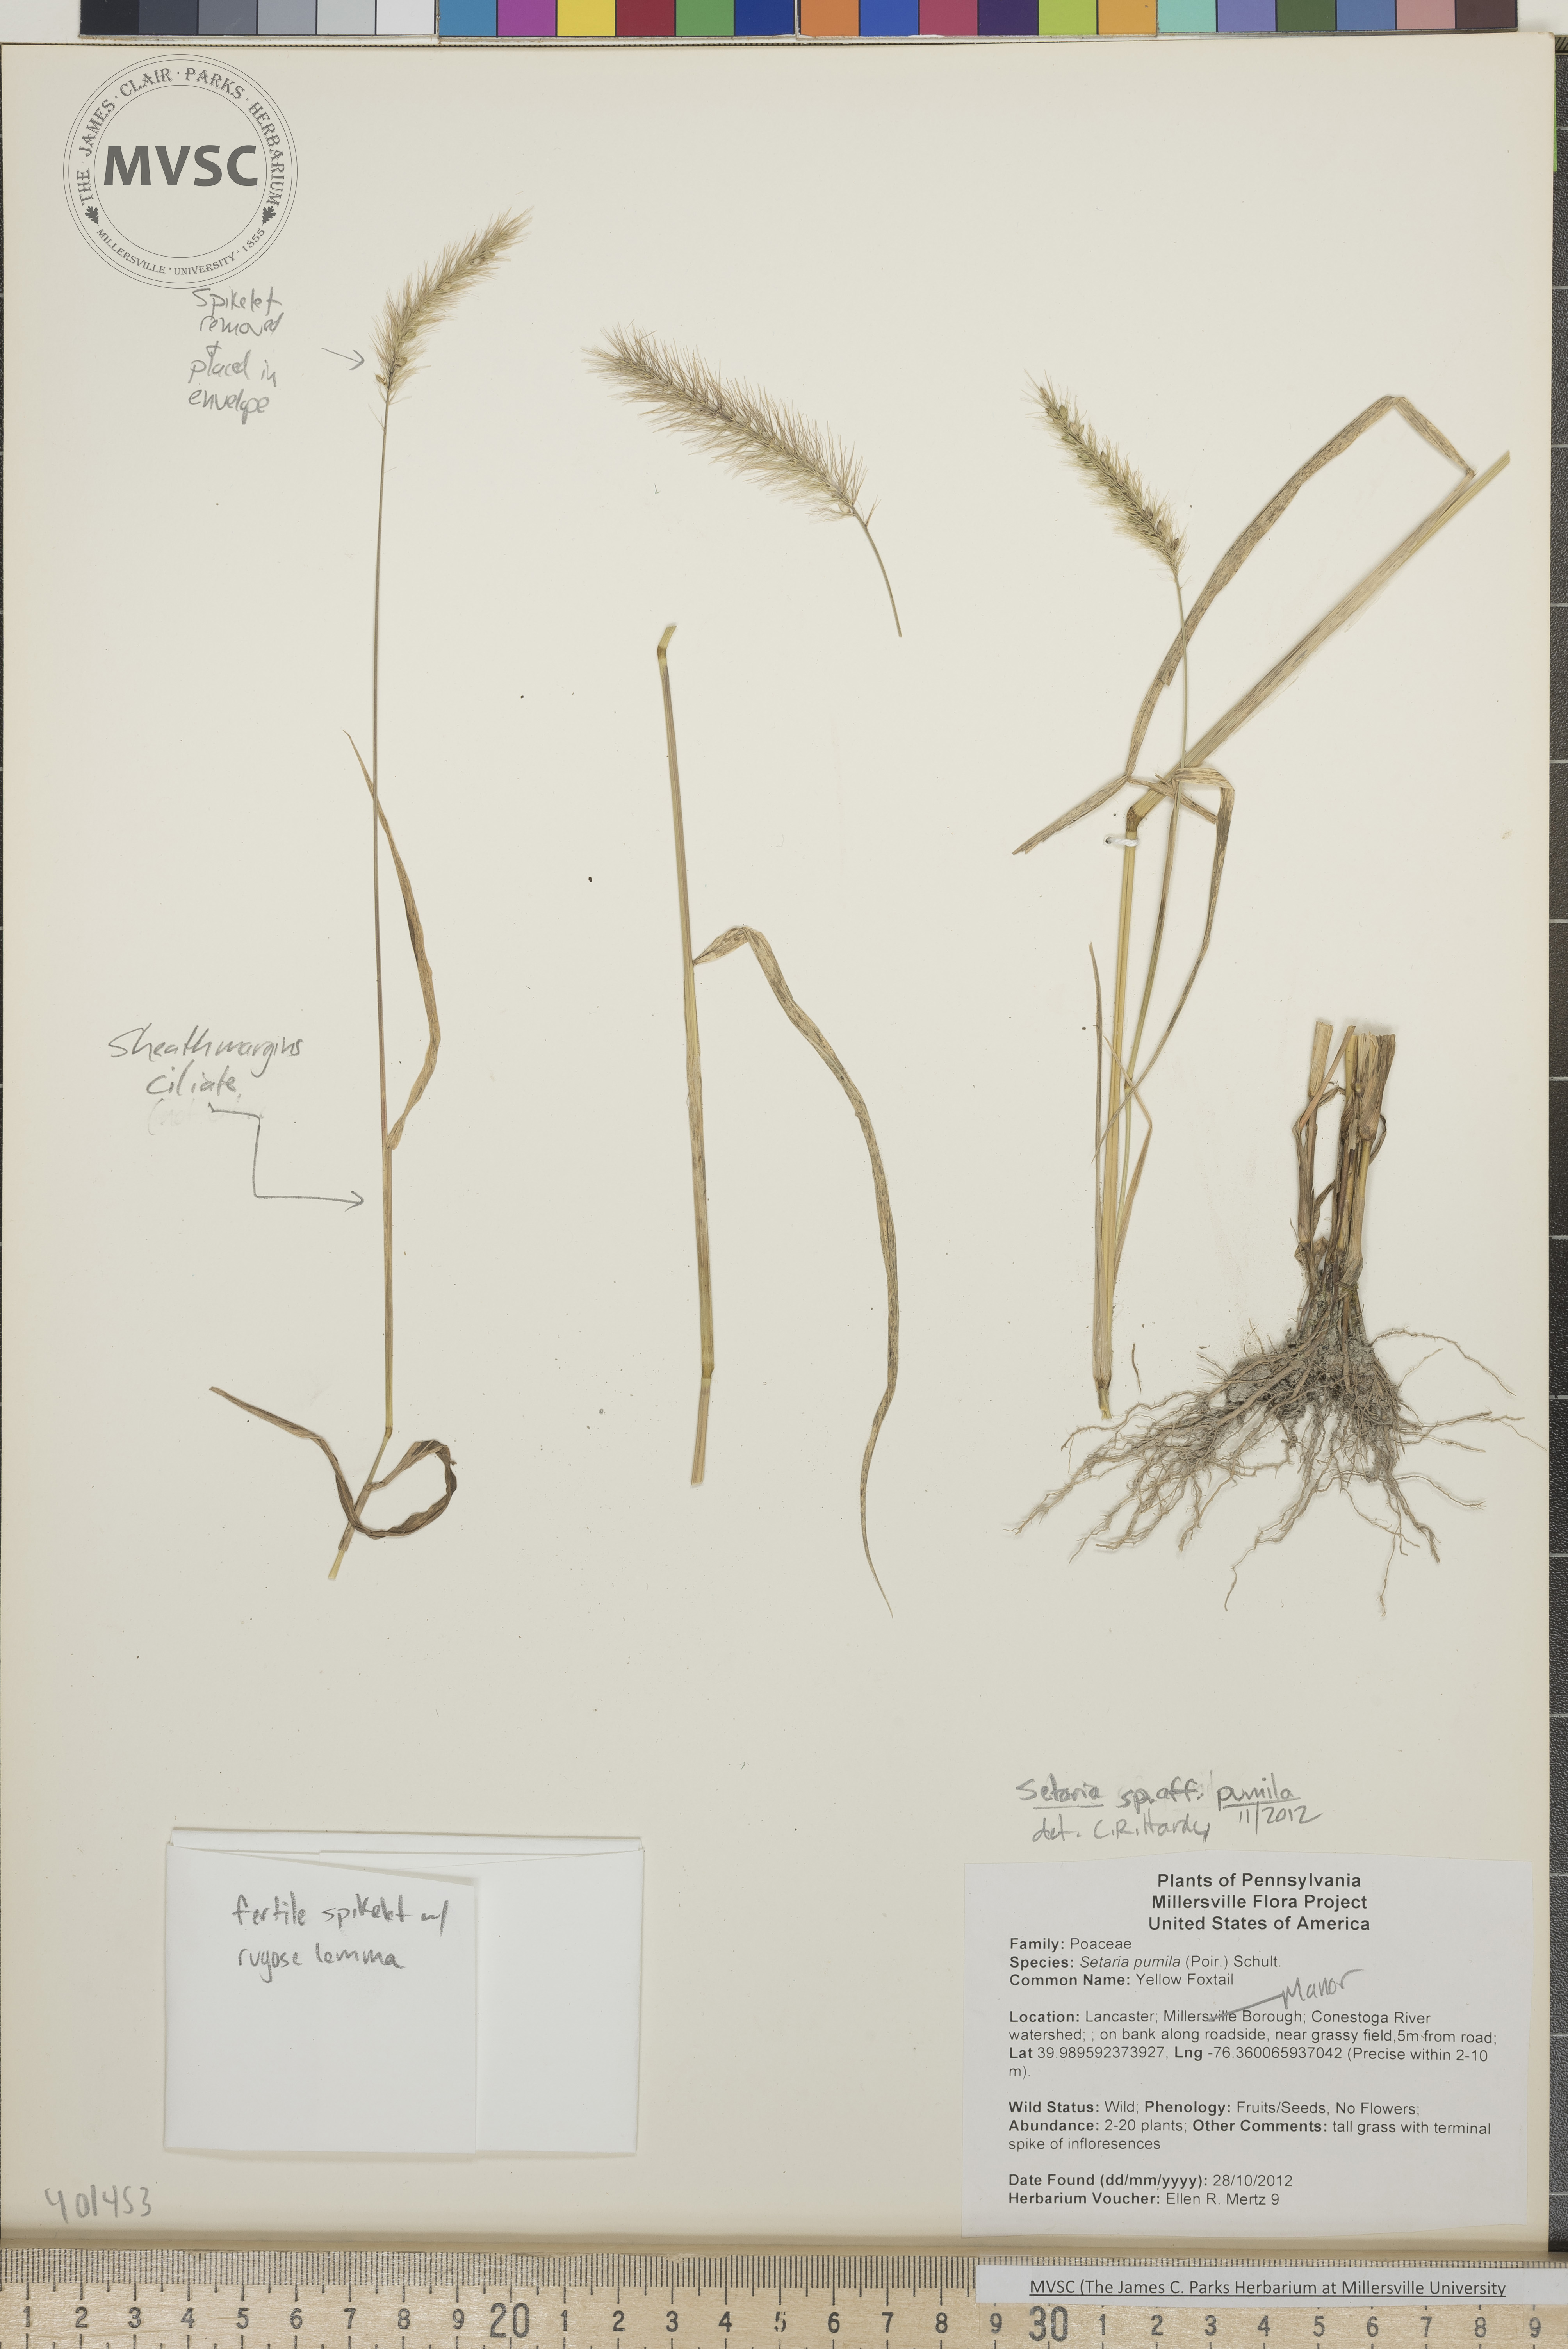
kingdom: Plantae
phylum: Tracheophyta
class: Liliopsida
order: Poales
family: Poaceae
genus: Setaria
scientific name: Setaria pumila
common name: Yellow Foxtail
